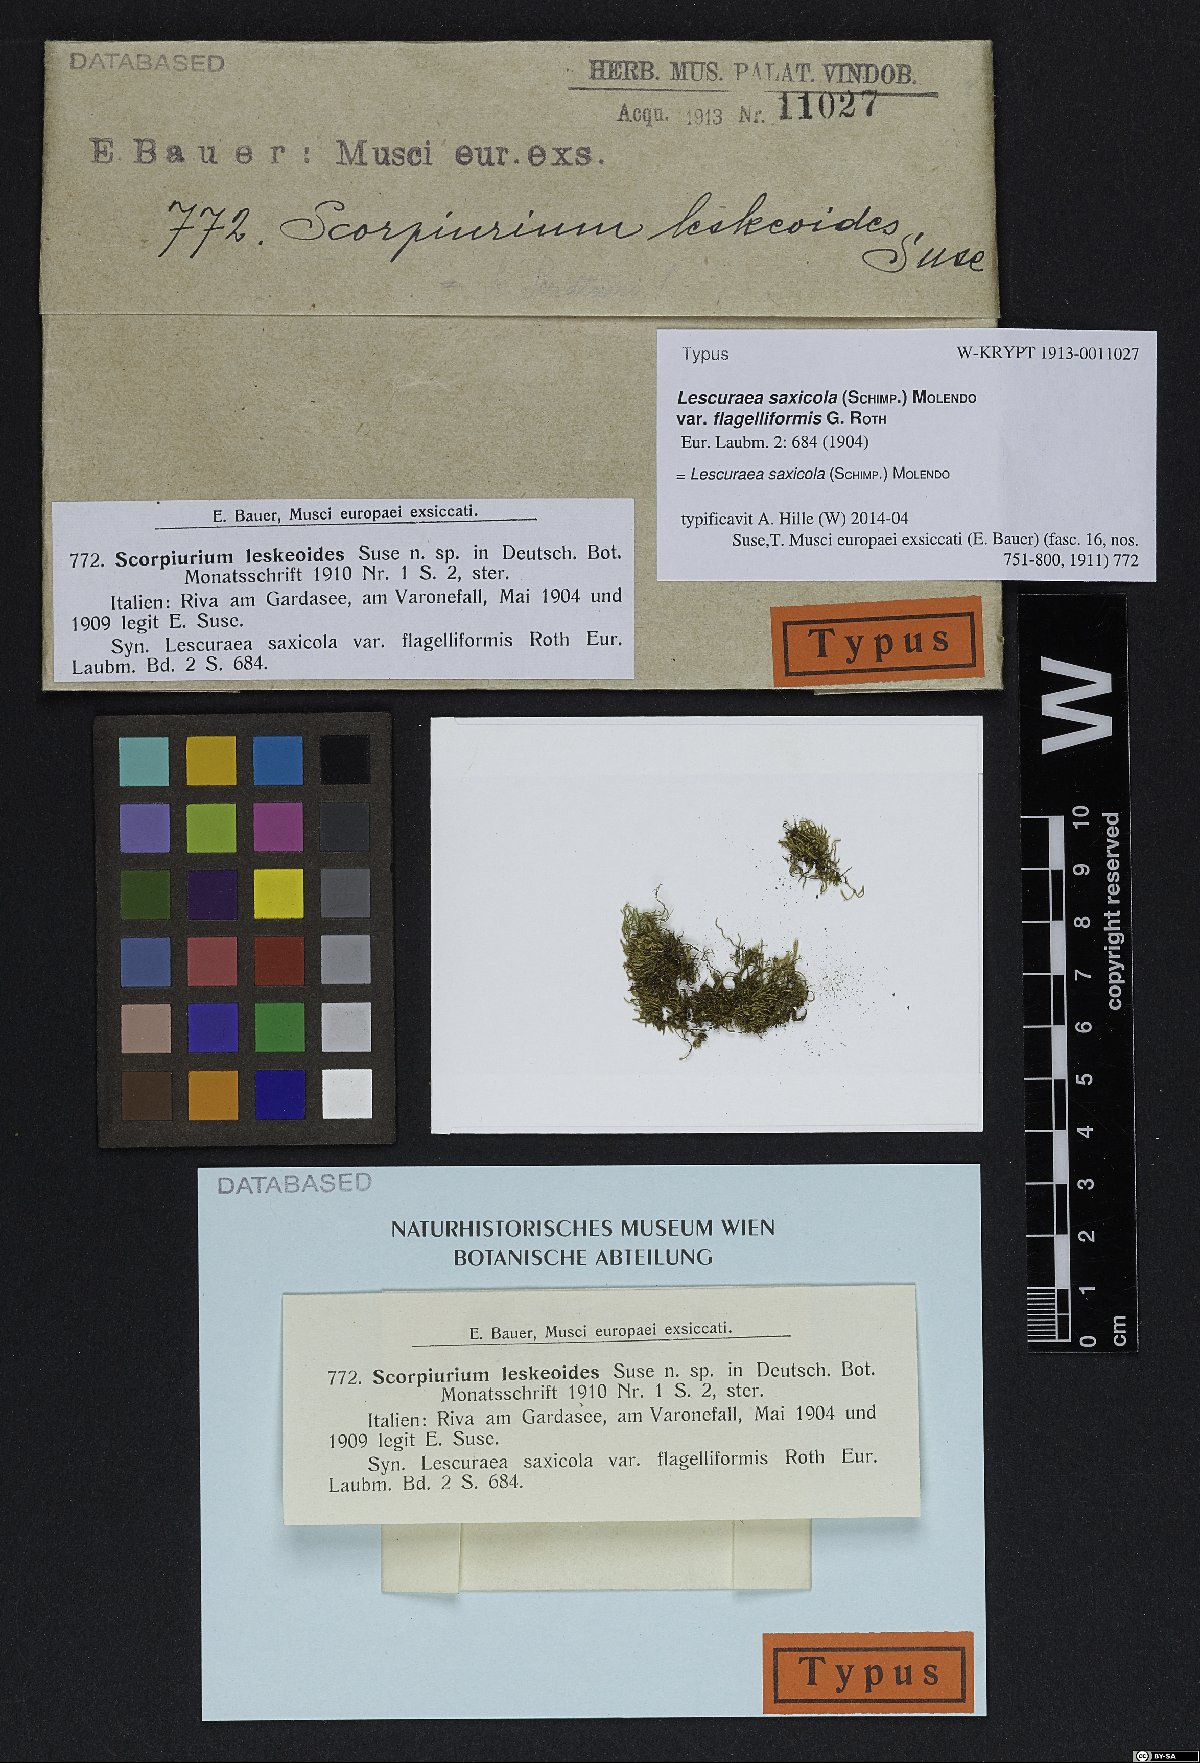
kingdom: Plantae
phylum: Bryophyta
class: Bryopsida
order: Hypnales
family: Pseudoleskeaceae
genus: Lescuraea
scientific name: Lescuraea saxicola
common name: Rock feather moss
